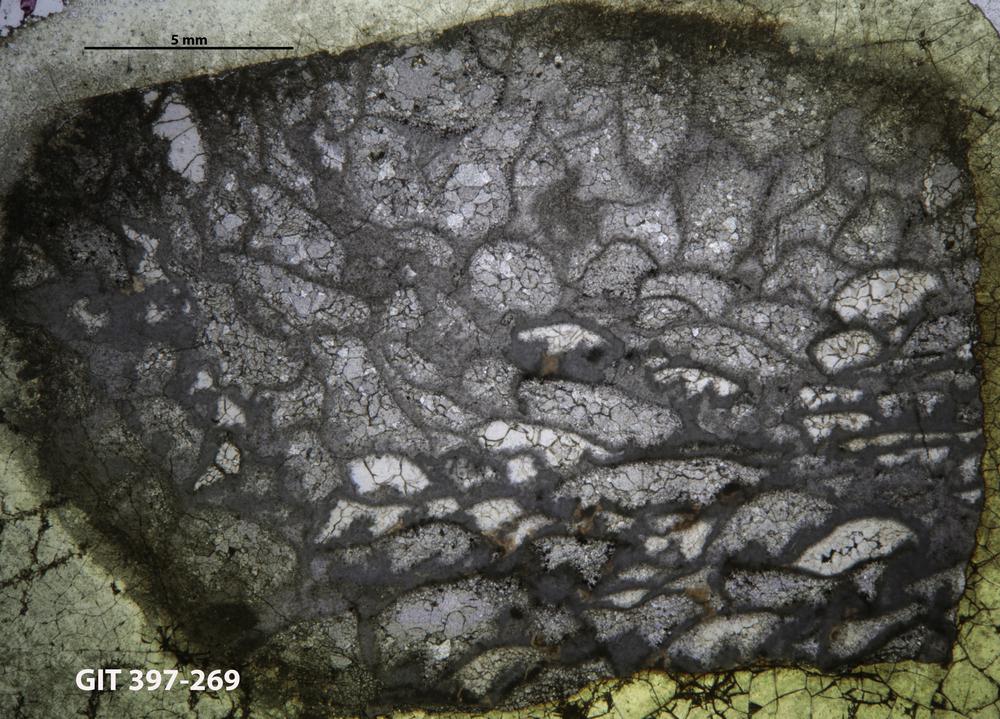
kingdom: Animalia
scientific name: Animalia
